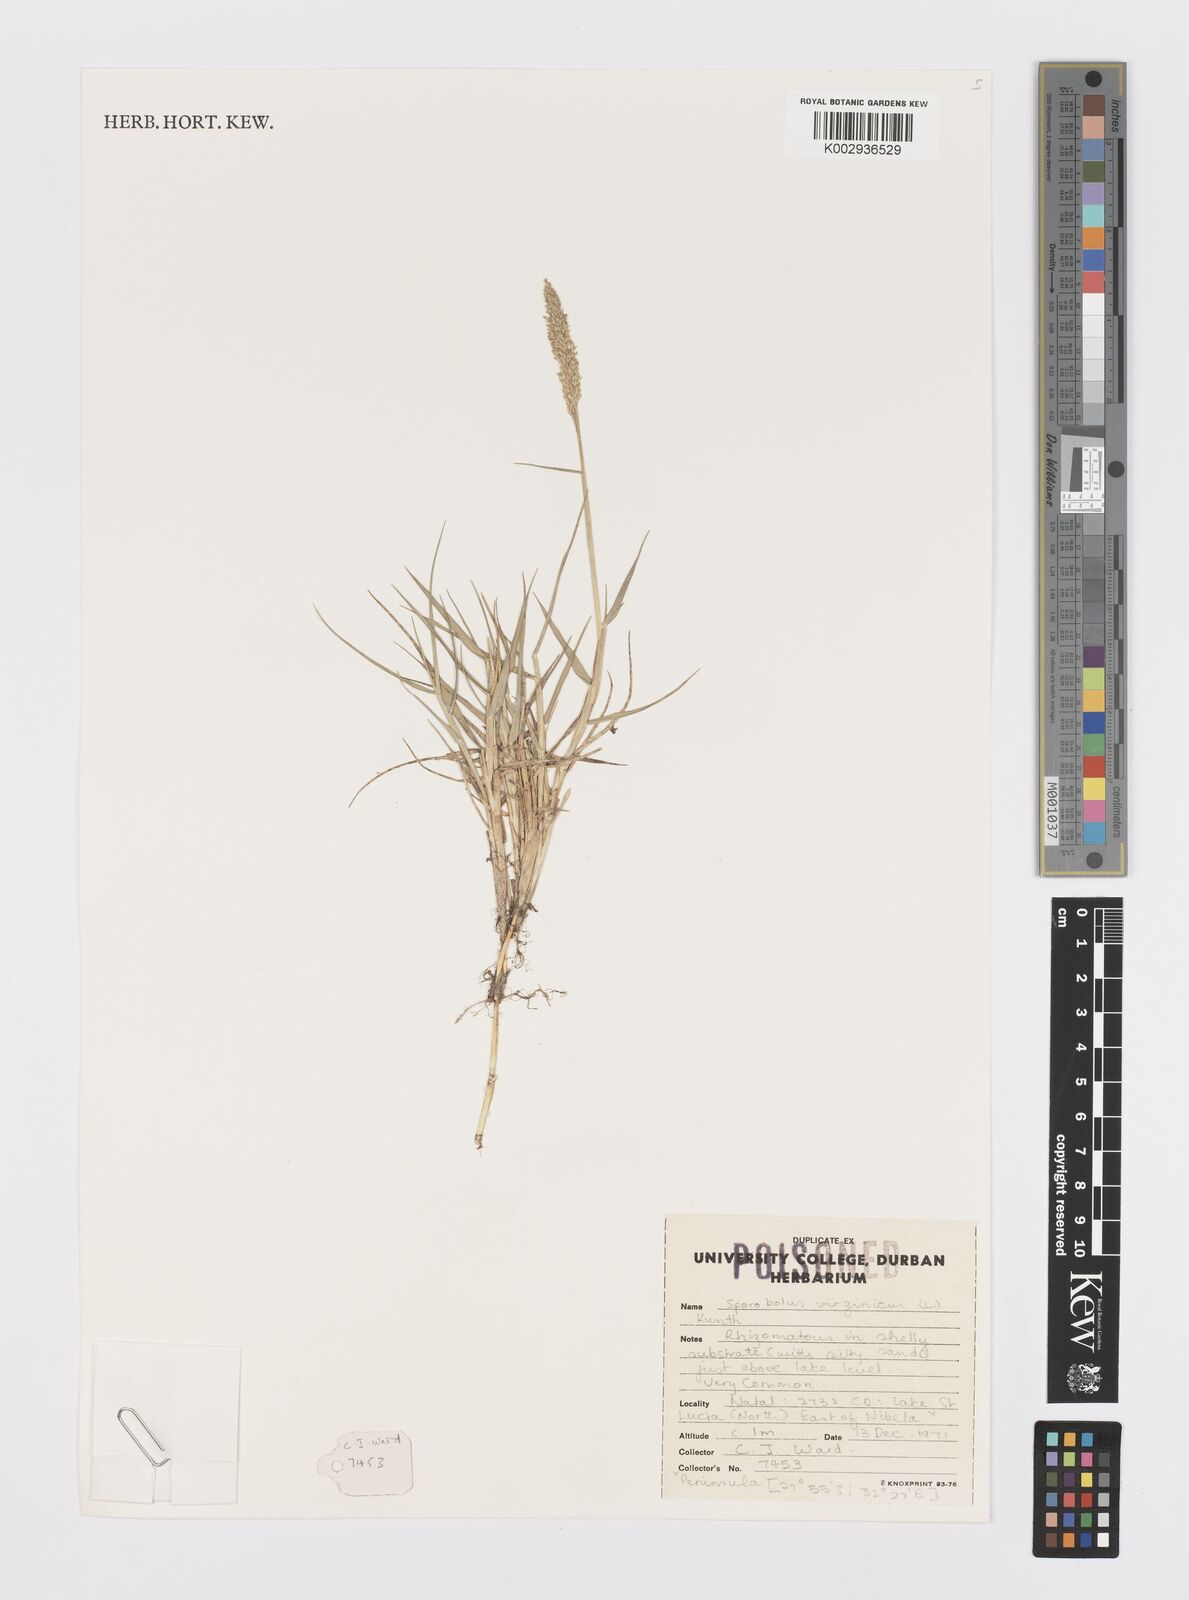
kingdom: Plantae
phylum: Tracheophyta
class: Liliopsida
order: Poales
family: Poaceae
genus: Sporobolus
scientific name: Sporobolus virginicus
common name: Beach dropseed
